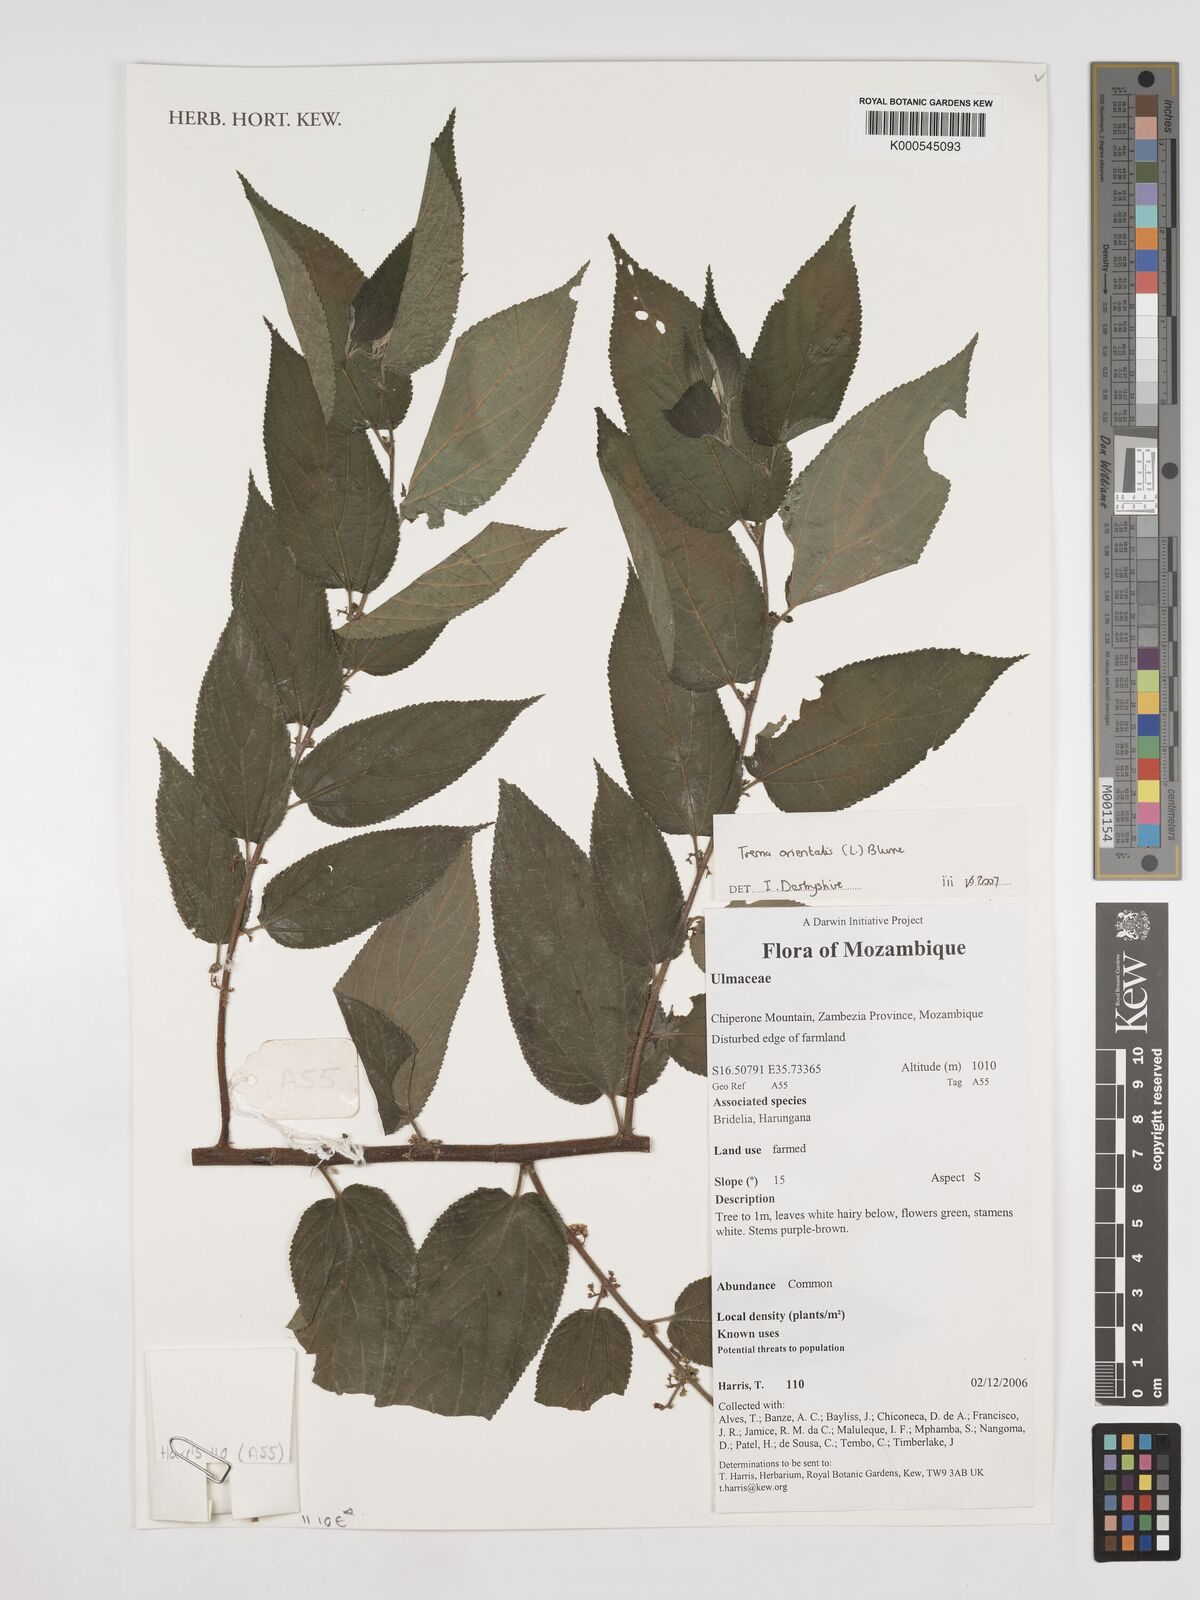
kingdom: Plantae
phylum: Tracheophyta
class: Magnoliopsida
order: Rosales
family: Cannabaceae
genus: Trema
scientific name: Trema
